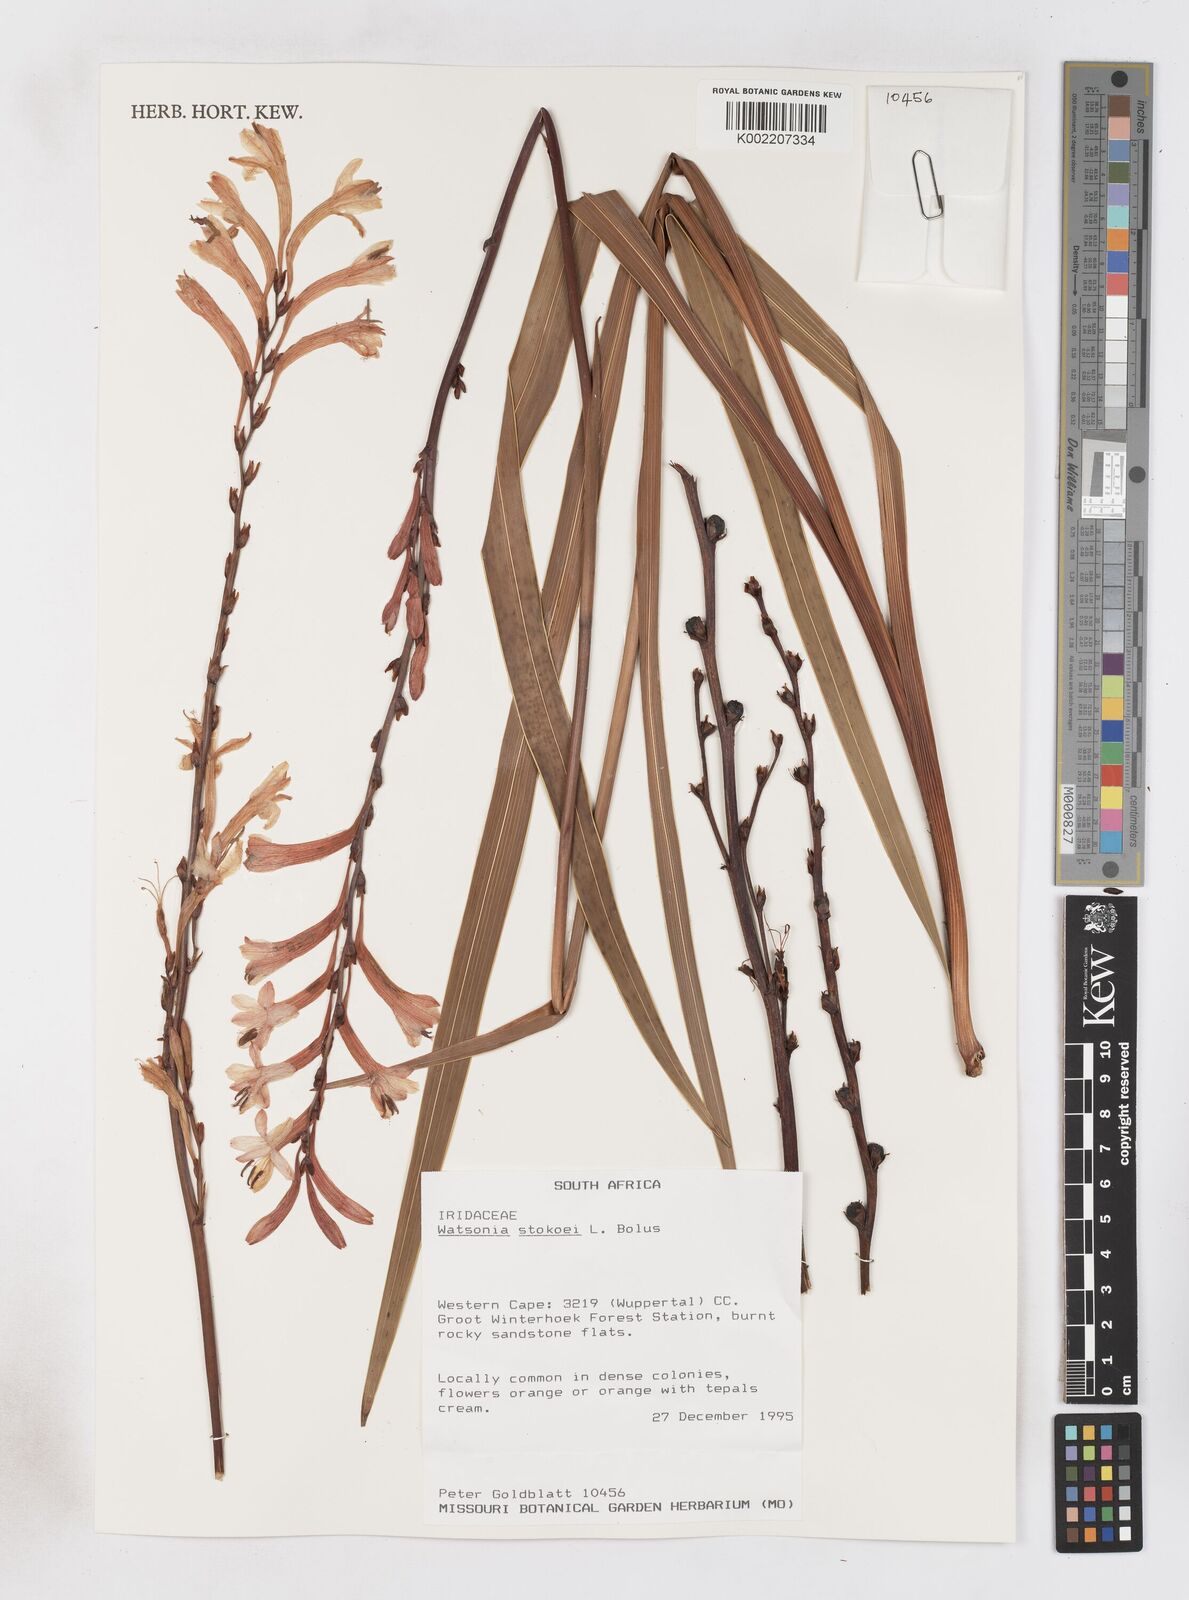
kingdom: Plantae
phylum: Tracheophyta
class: Liliopsida
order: Asparagales
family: Iridaceae
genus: Watsonia
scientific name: Watsonia stokoei
